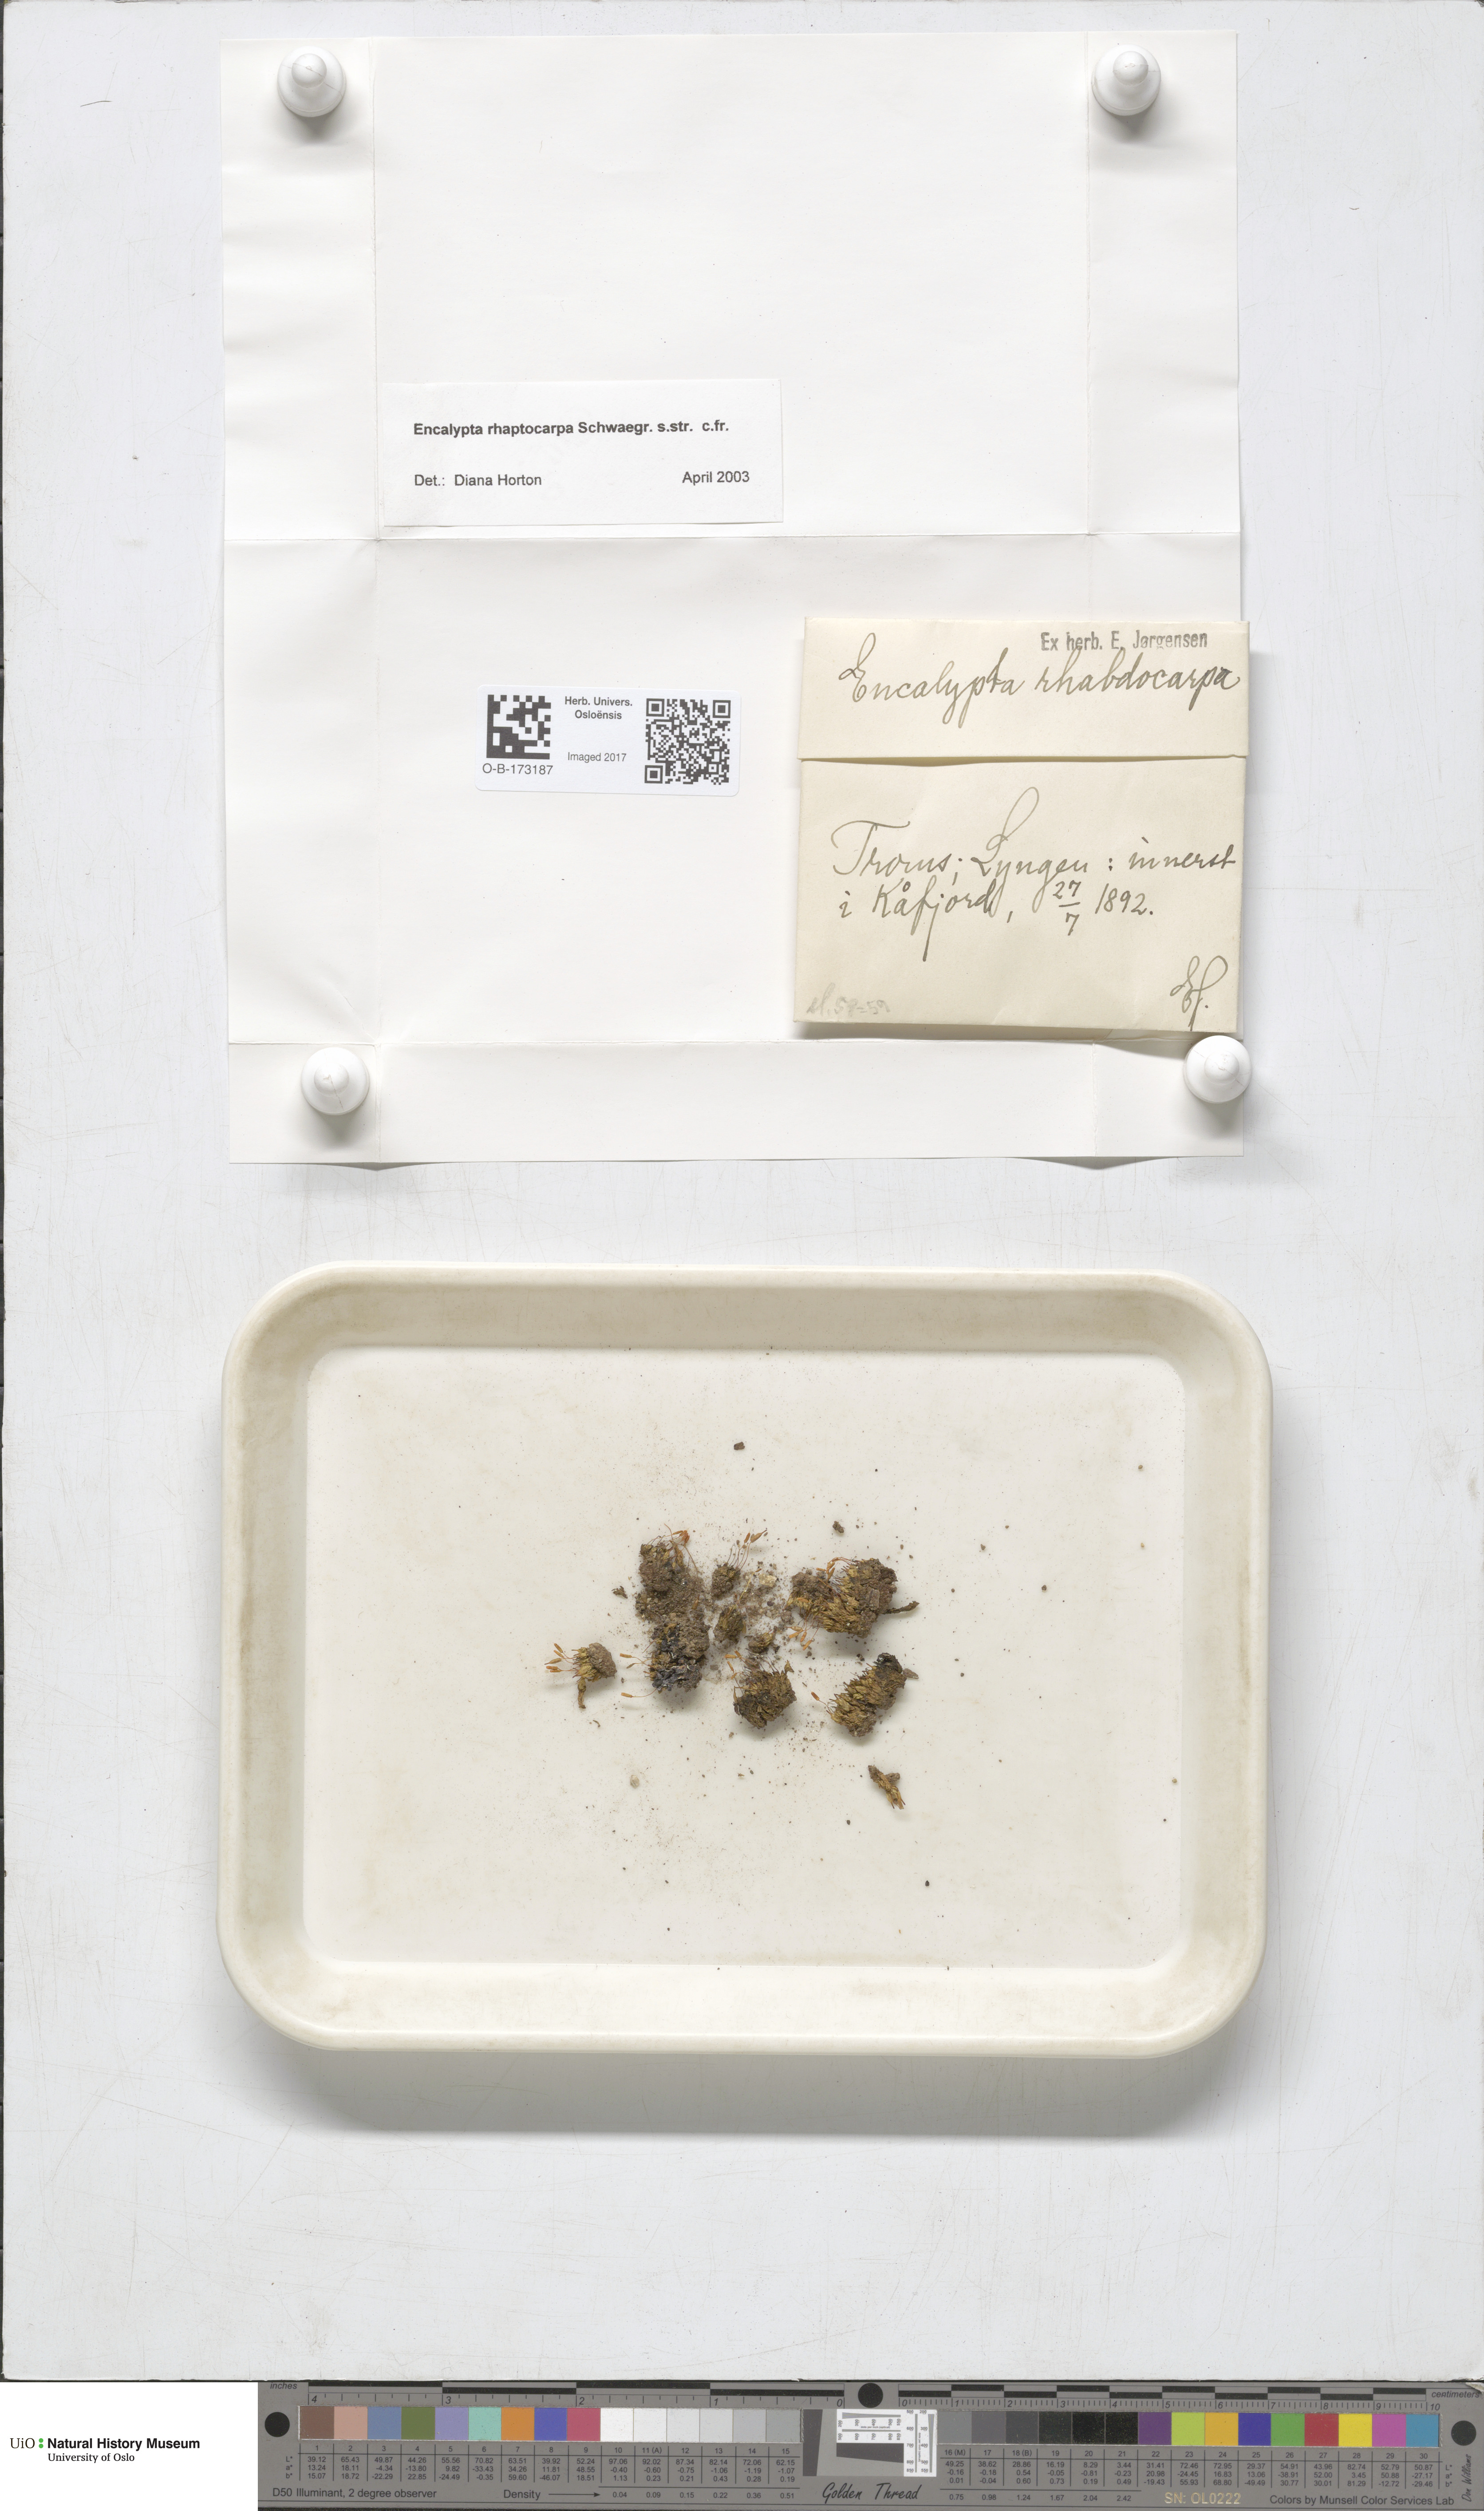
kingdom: Plantae
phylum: Bryophyta
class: Bryopsida
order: Encalyptales
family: Encalyptaceae
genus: Encalypta
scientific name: Encalypta rhaptocarpa
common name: Ribbed extinguisher moss
